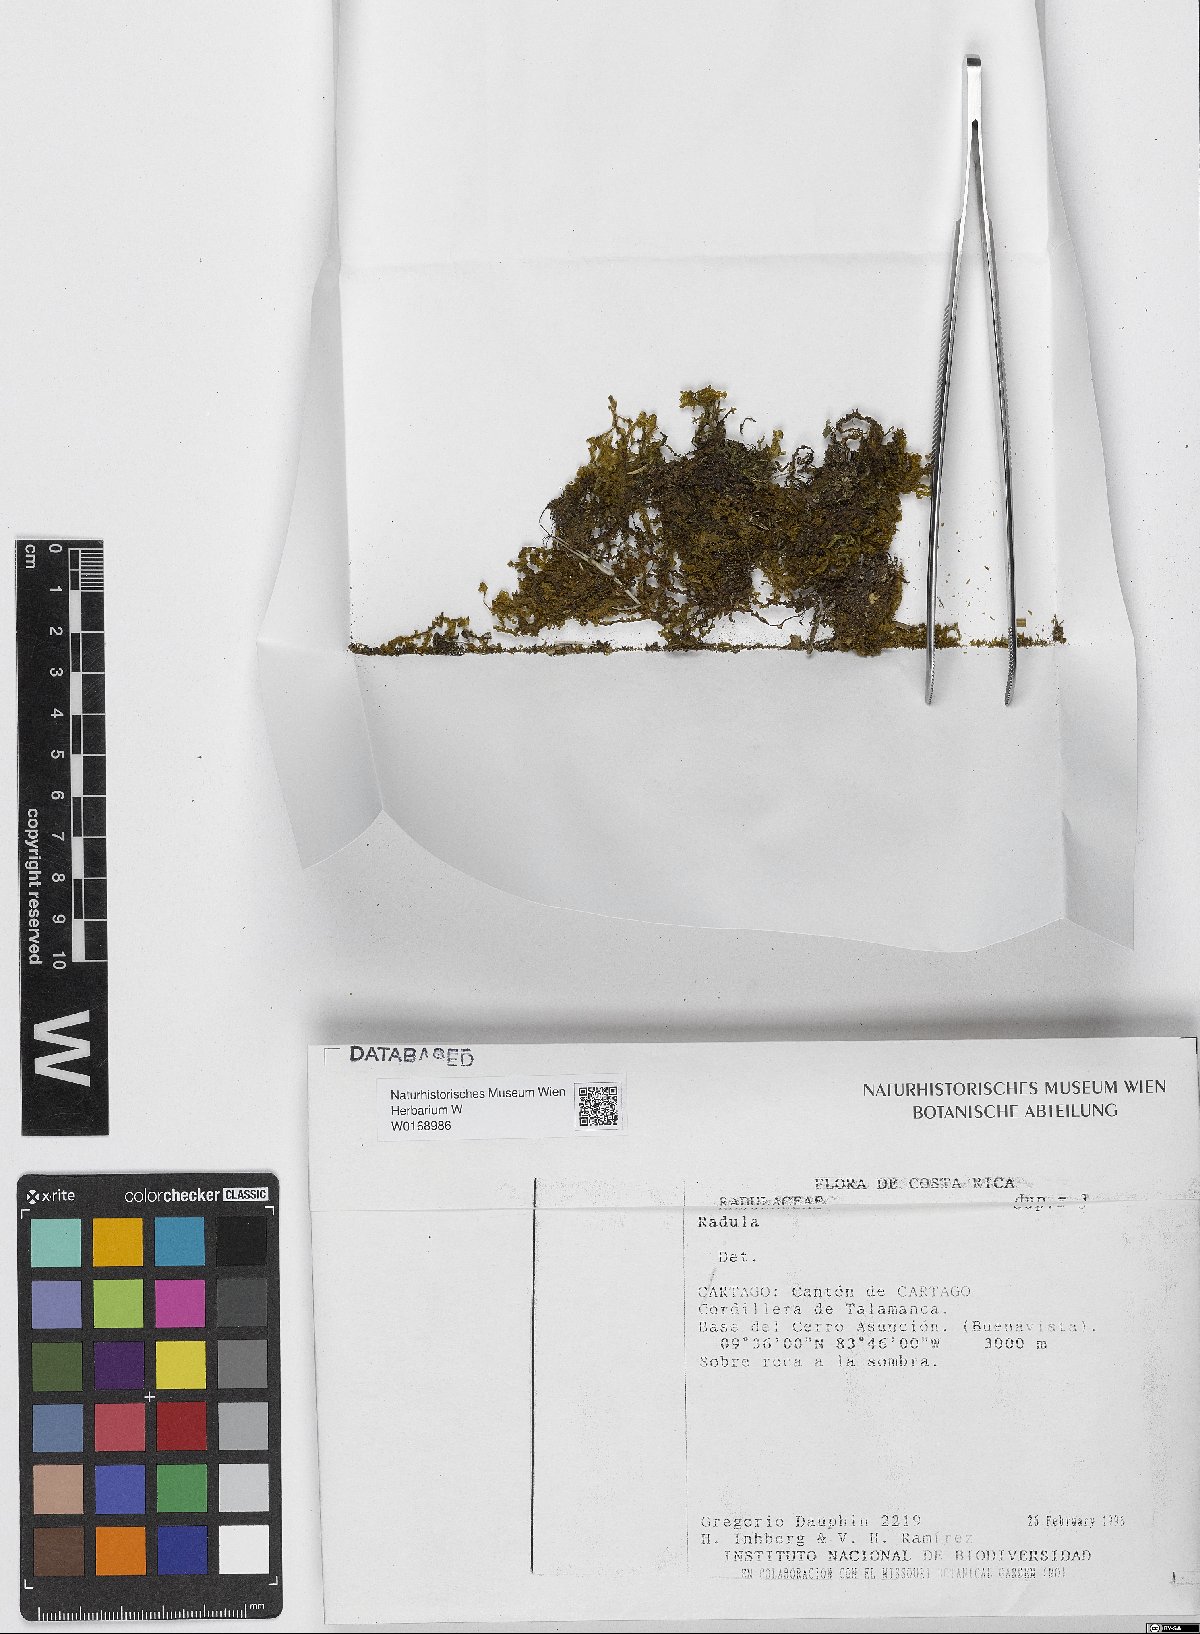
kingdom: Plantae
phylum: Marchantiophyta
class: Jungermanniopsida
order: Porellales
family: Radulaceae
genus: Radula
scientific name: Radula
